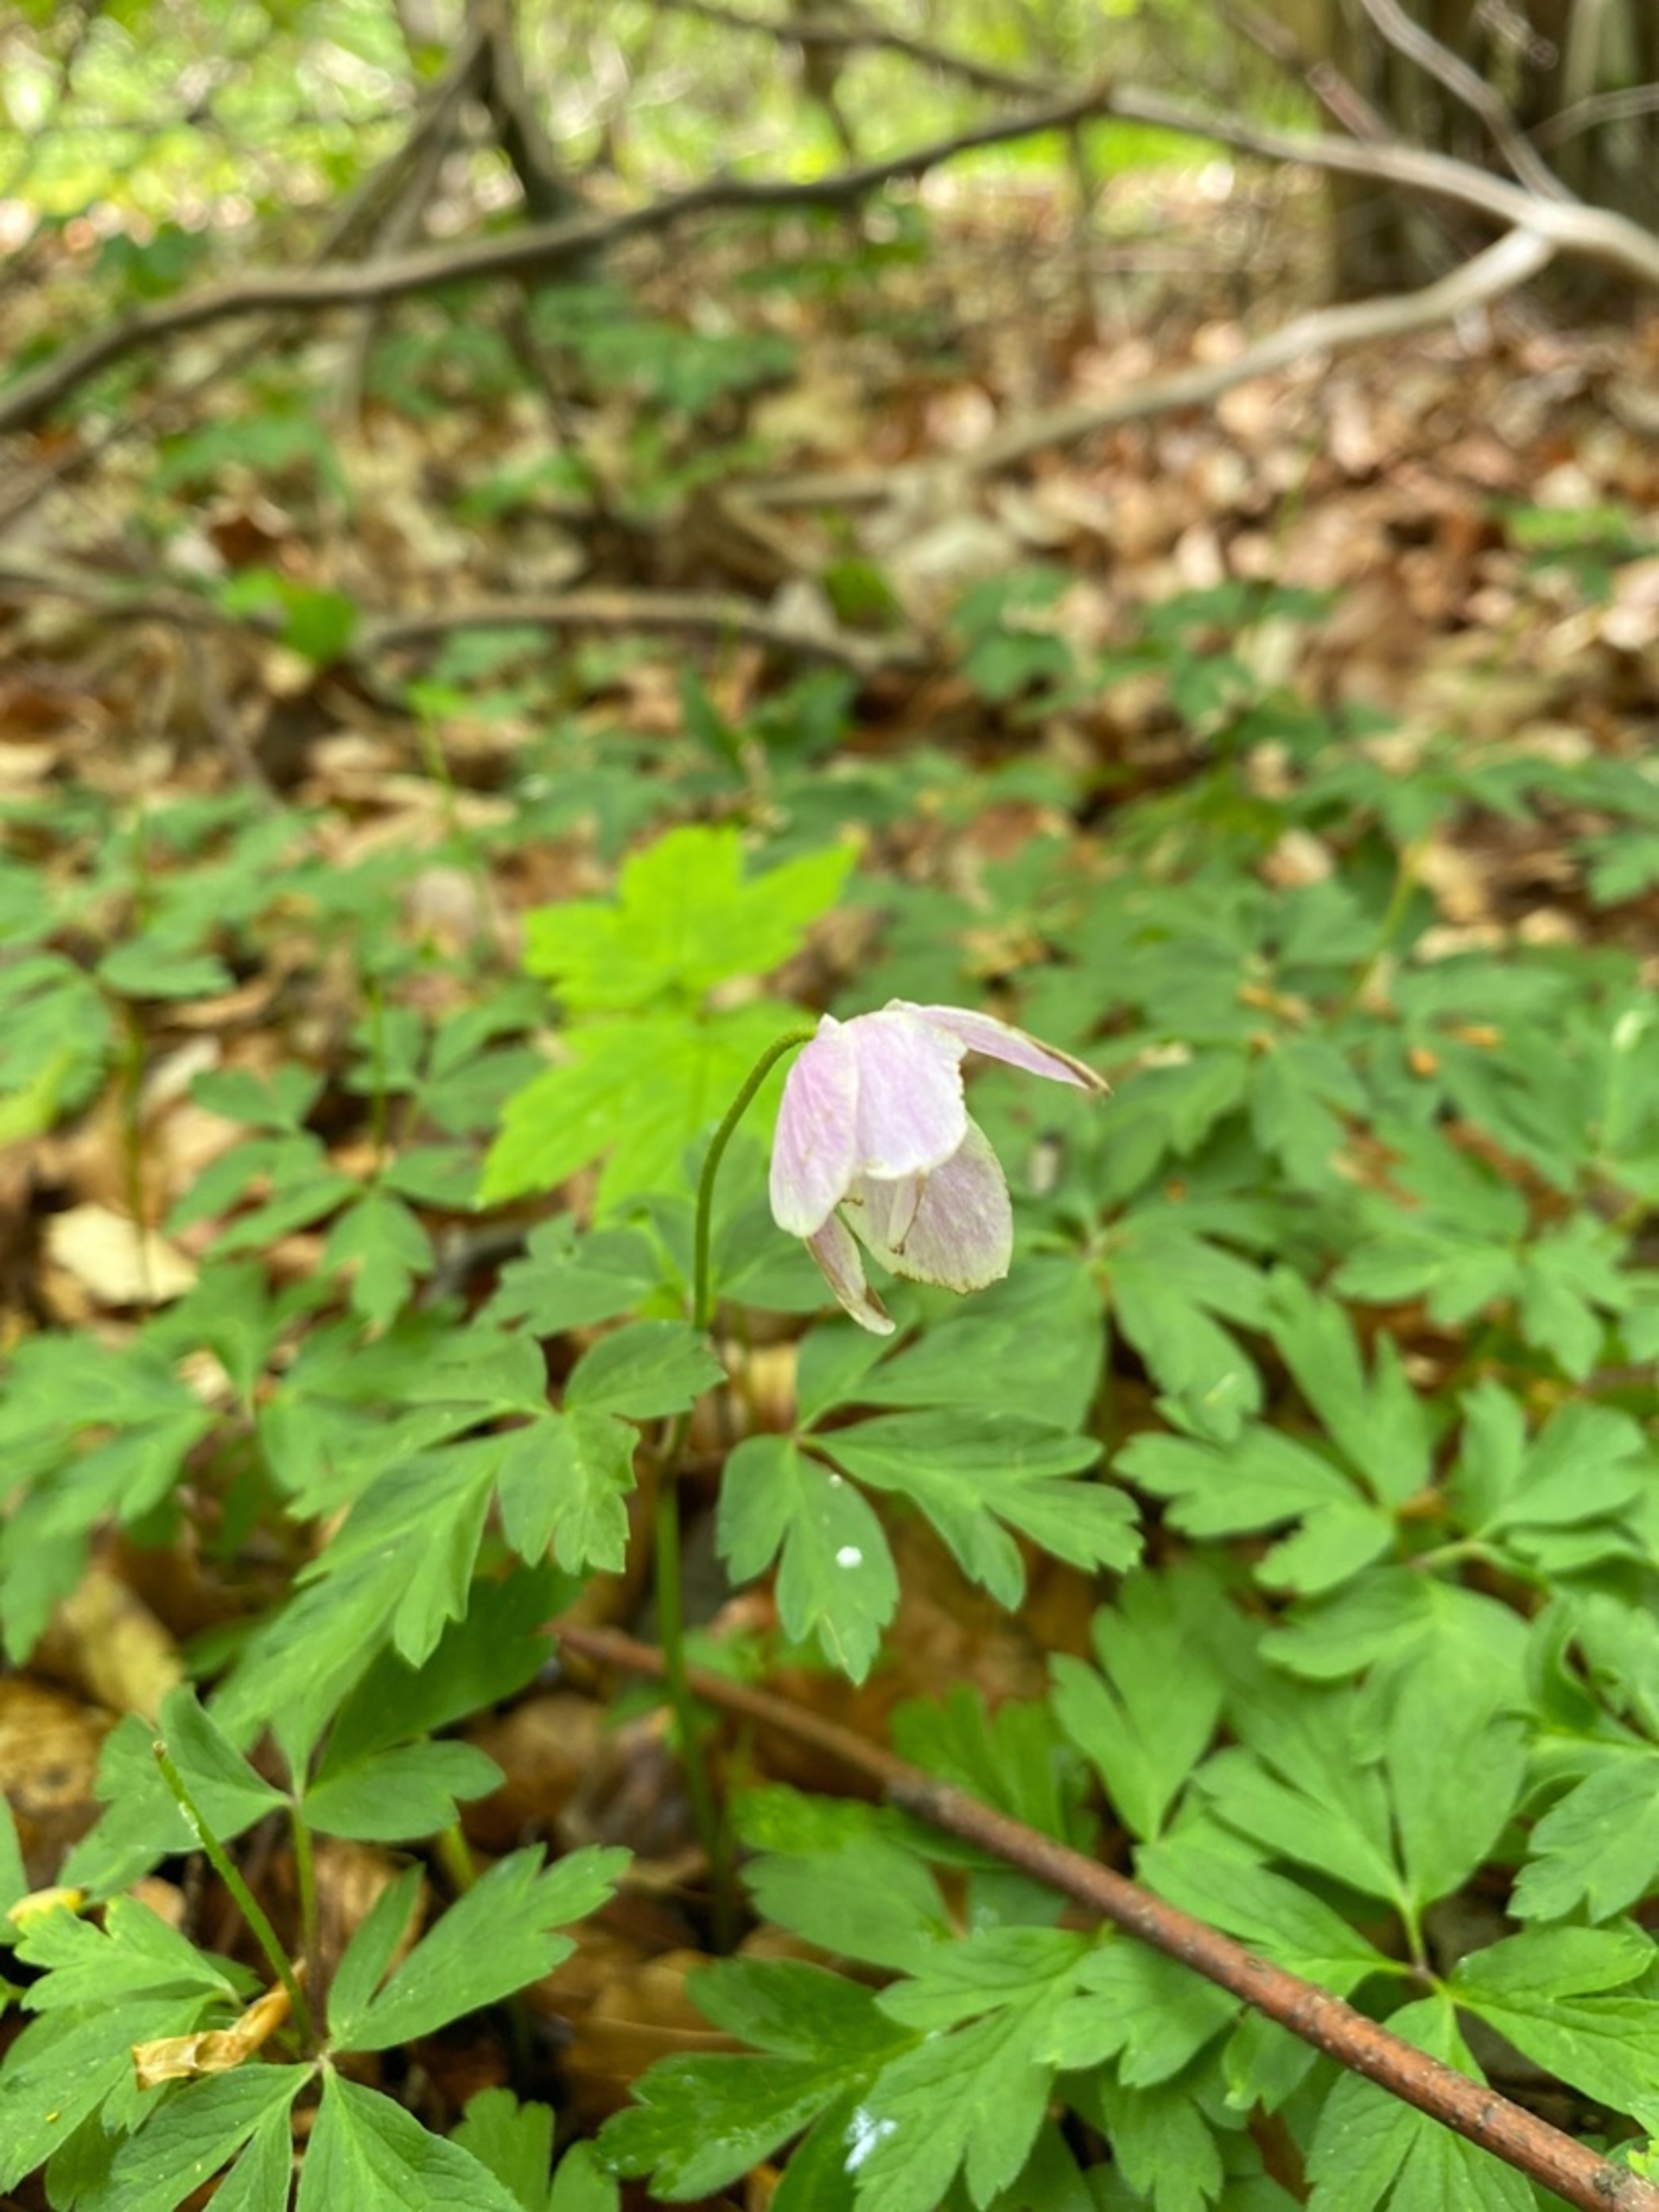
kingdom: Plantae
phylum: Tracheophyta
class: Magnoliopsida
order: Ranunculales
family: Ranunculaceae
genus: Anemone
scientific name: Anemone nemorosa
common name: Hvid anemone
